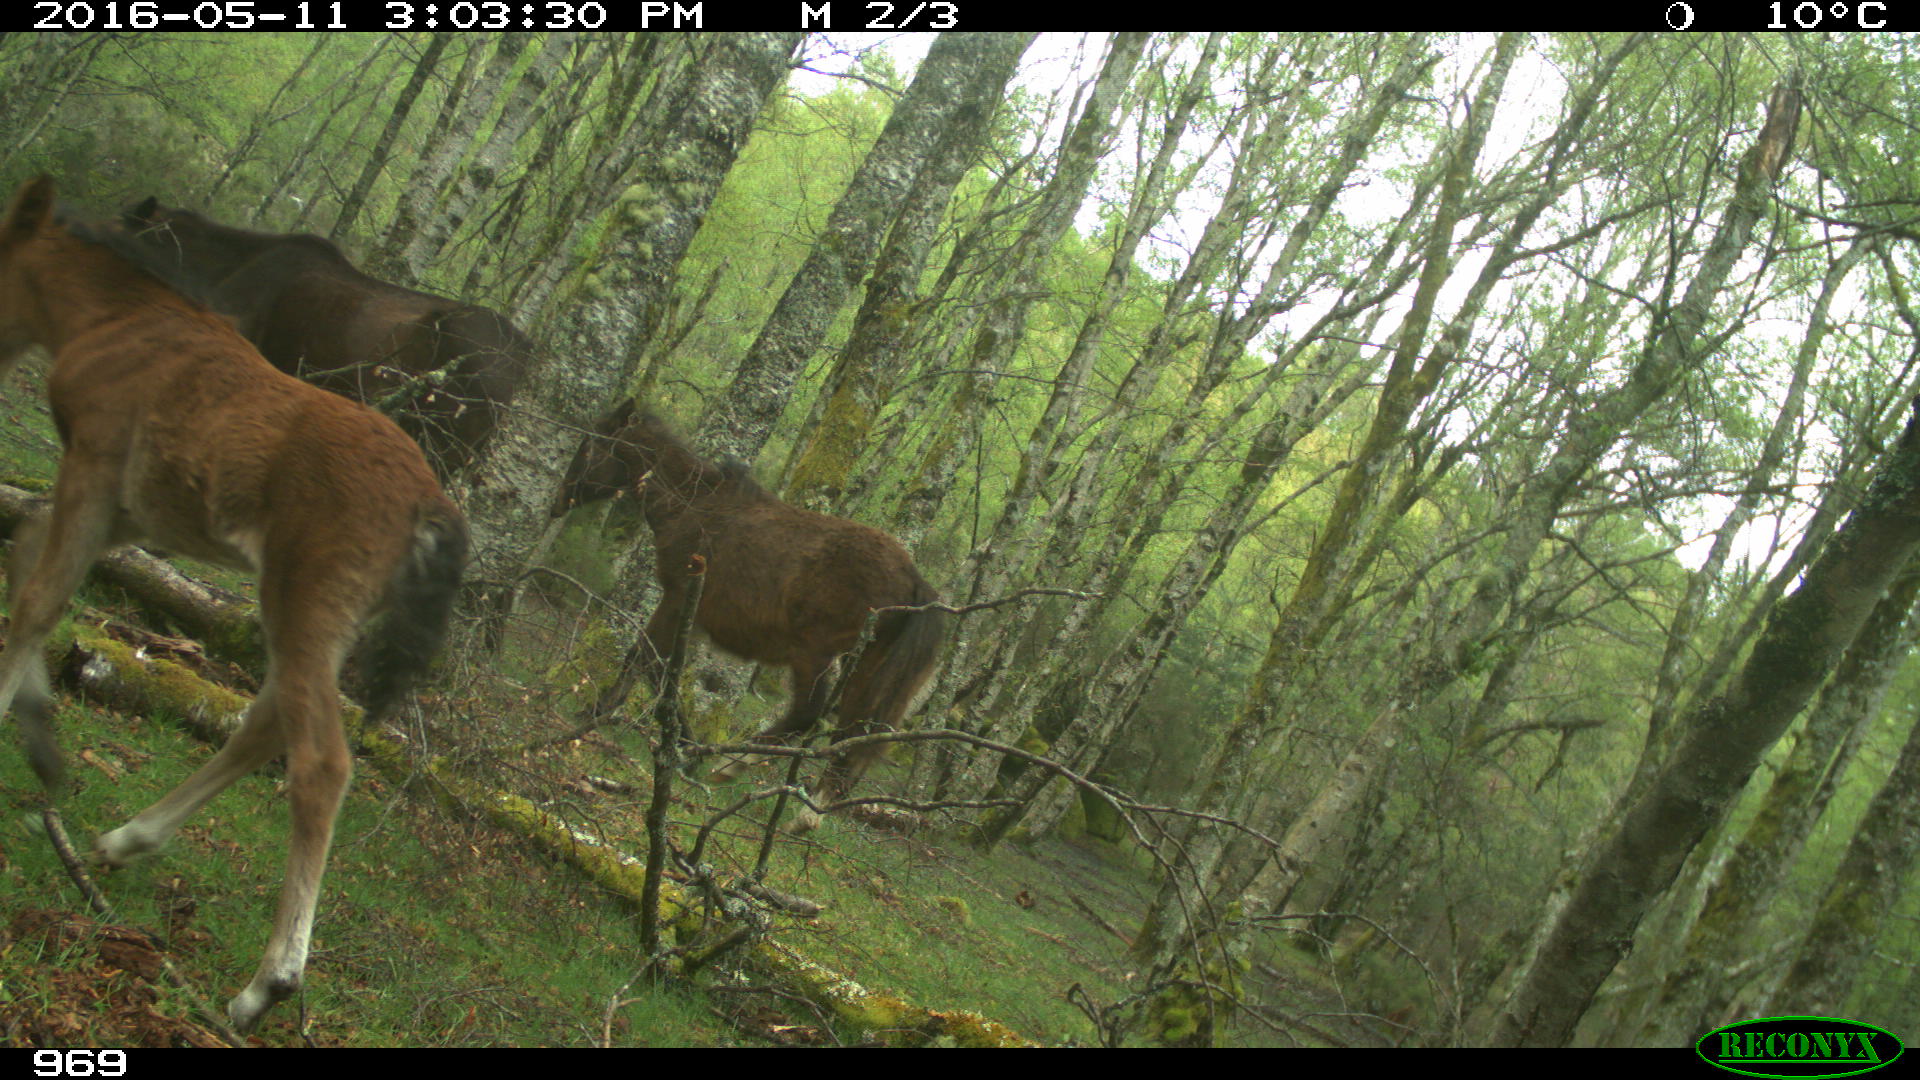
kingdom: Animalia
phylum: Chordata
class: Mammalia
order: Perissodactyla
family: Equidae
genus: Equus
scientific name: Equus caballus
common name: Horse
